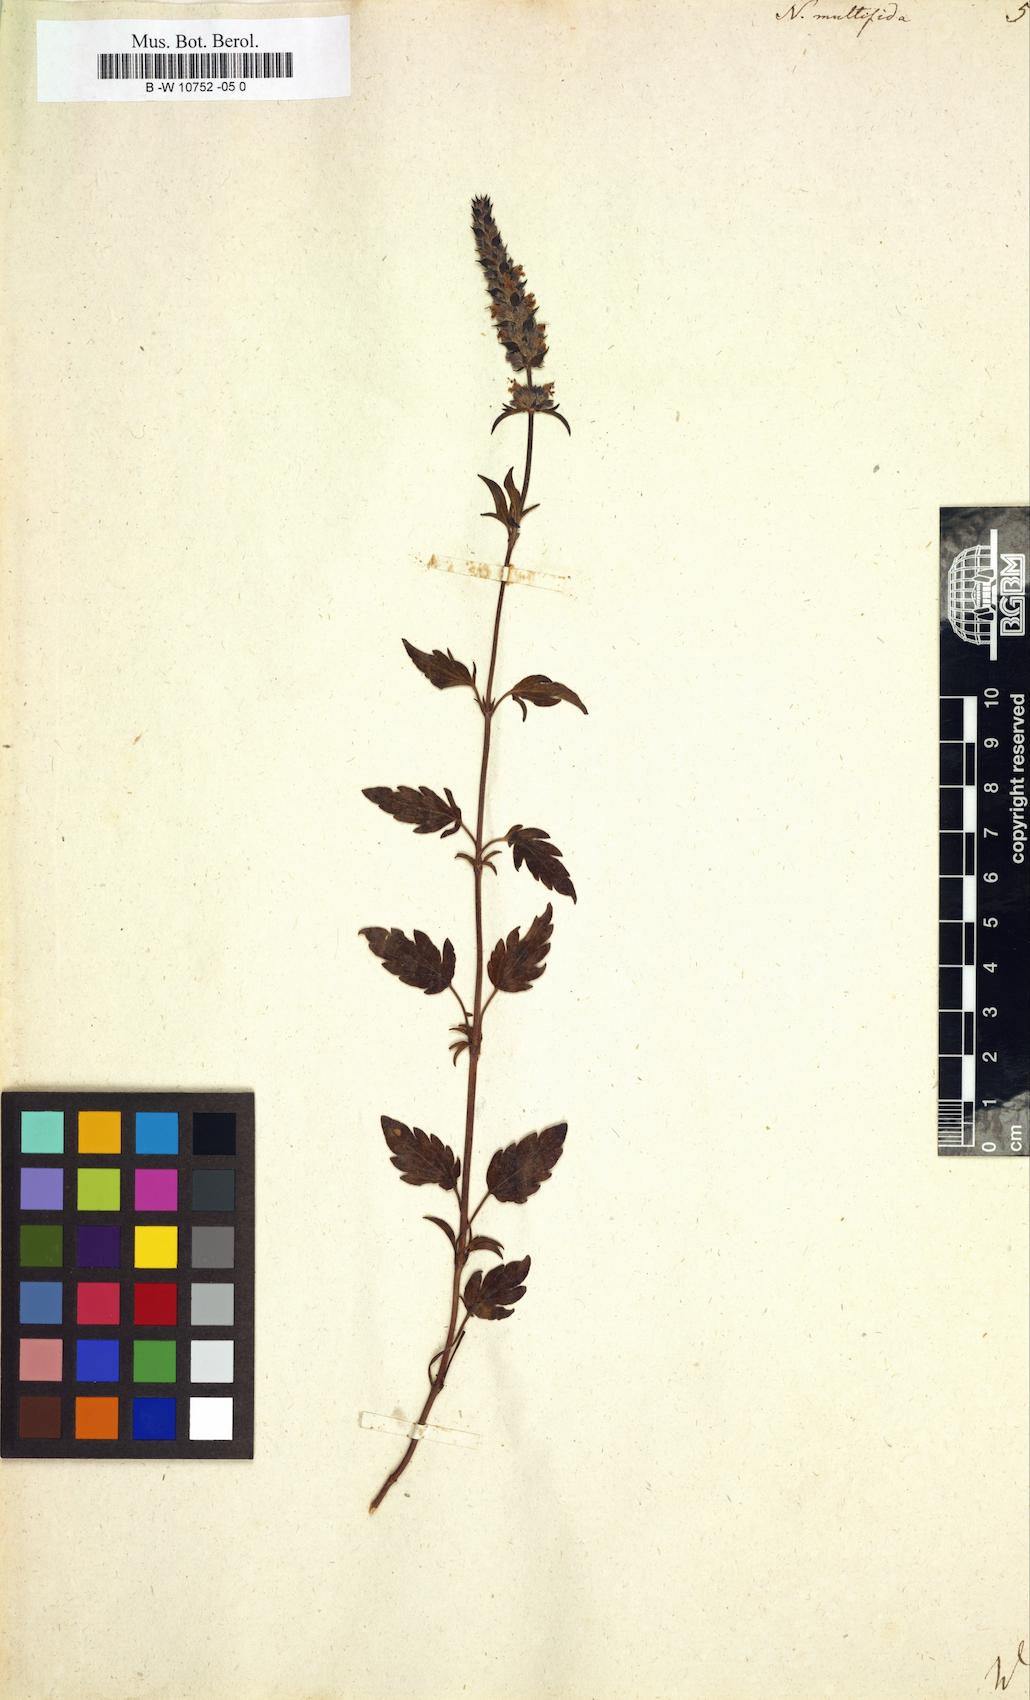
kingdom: Plantae
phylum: Tracheophyta
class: Magnoliopsida
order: Lamiales
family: Lamiaceae
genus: Nepeta
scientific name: Nepeta multifida
